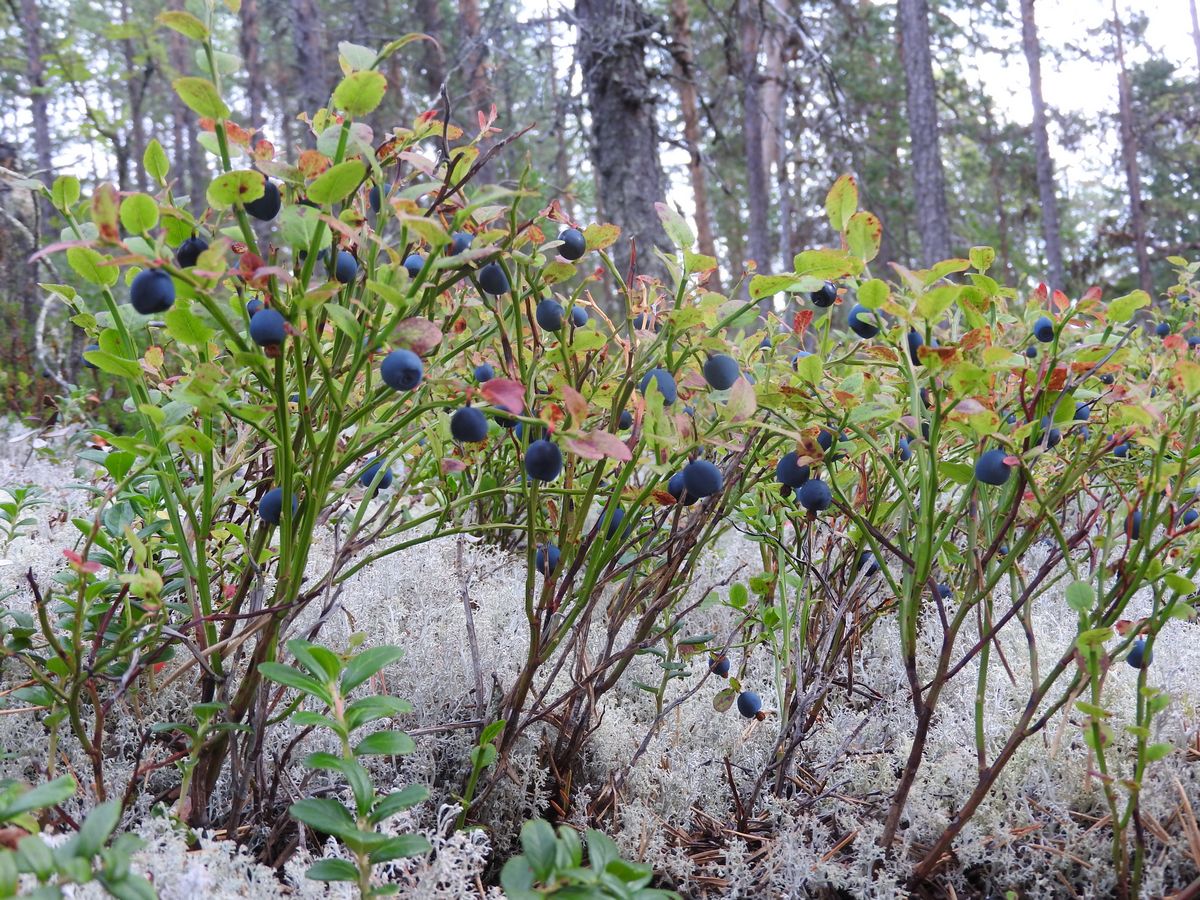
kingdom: Plantae
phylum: Tracheophyta
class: Magnoliopsida
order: Ericales
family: Ericaceae
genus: Vaccinium
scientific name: Vaccinium myrtillus
